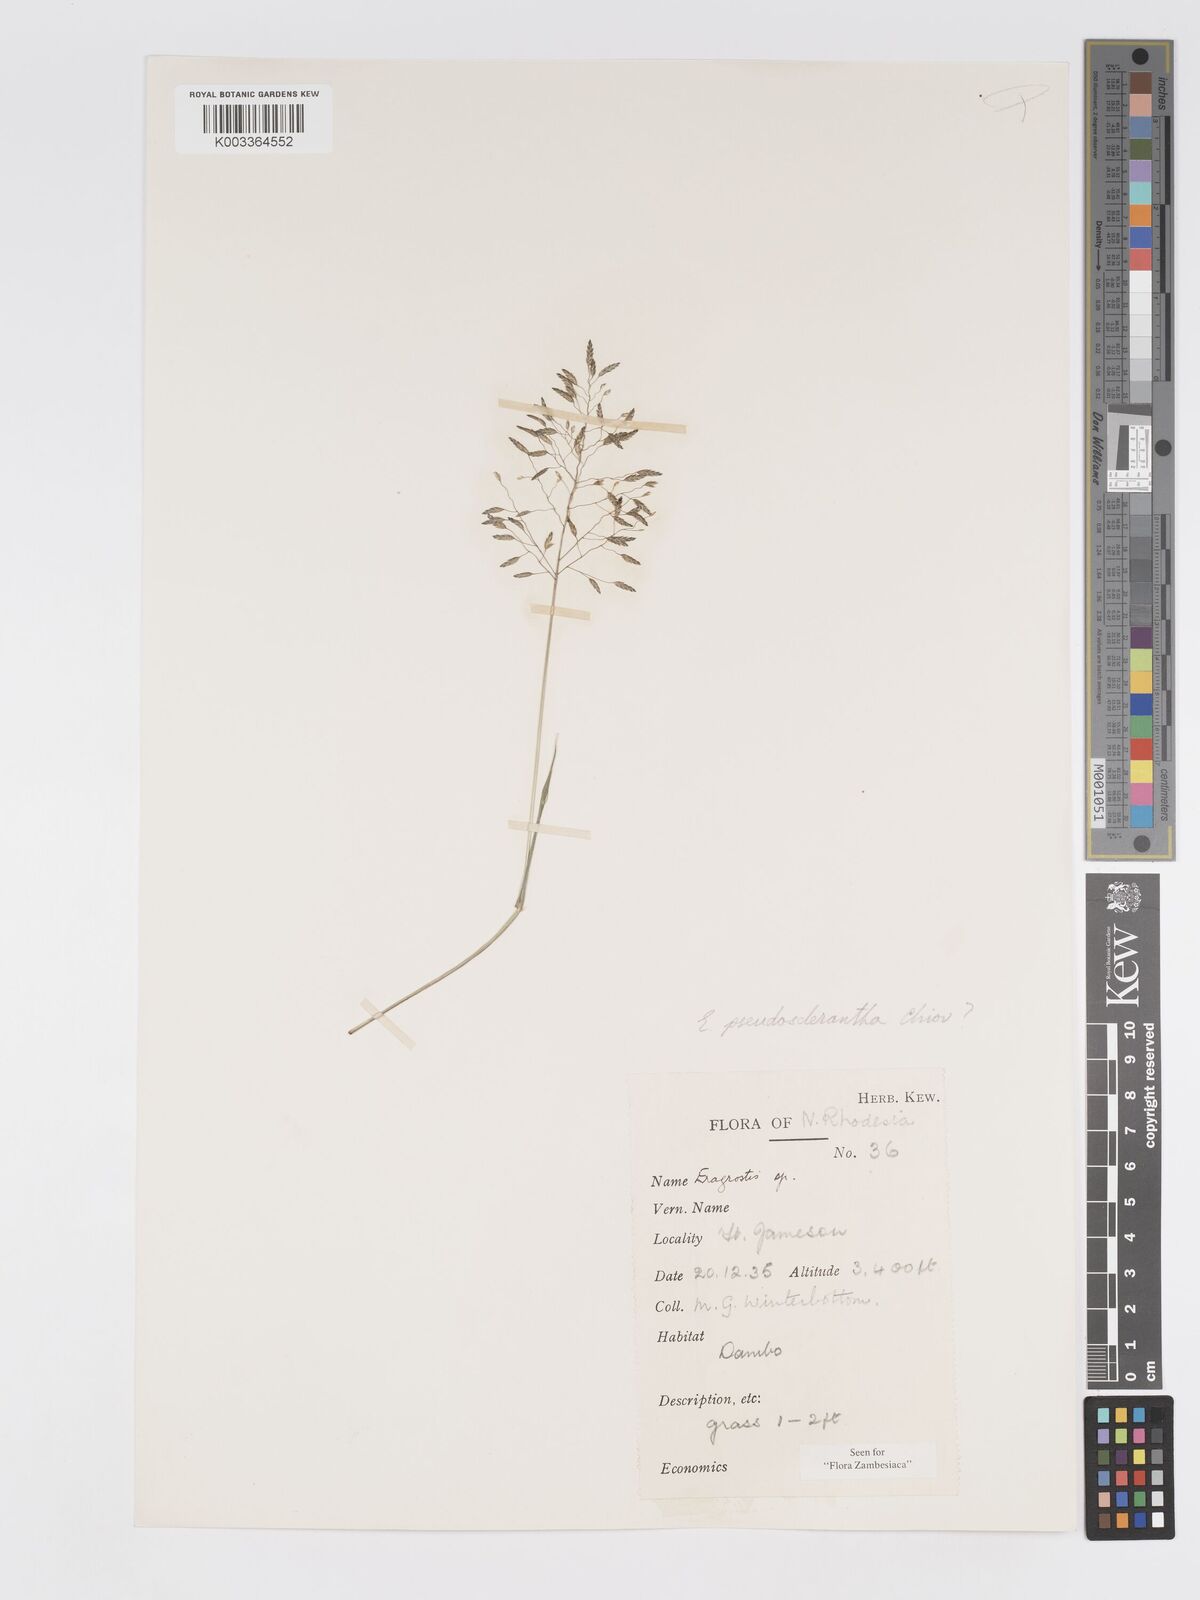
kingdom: Plantae
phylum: Tracheophyta
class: Liliopsida
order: Poales
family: Poaceae
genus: Eragrostis
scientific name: Eragrostis patentipilosa
